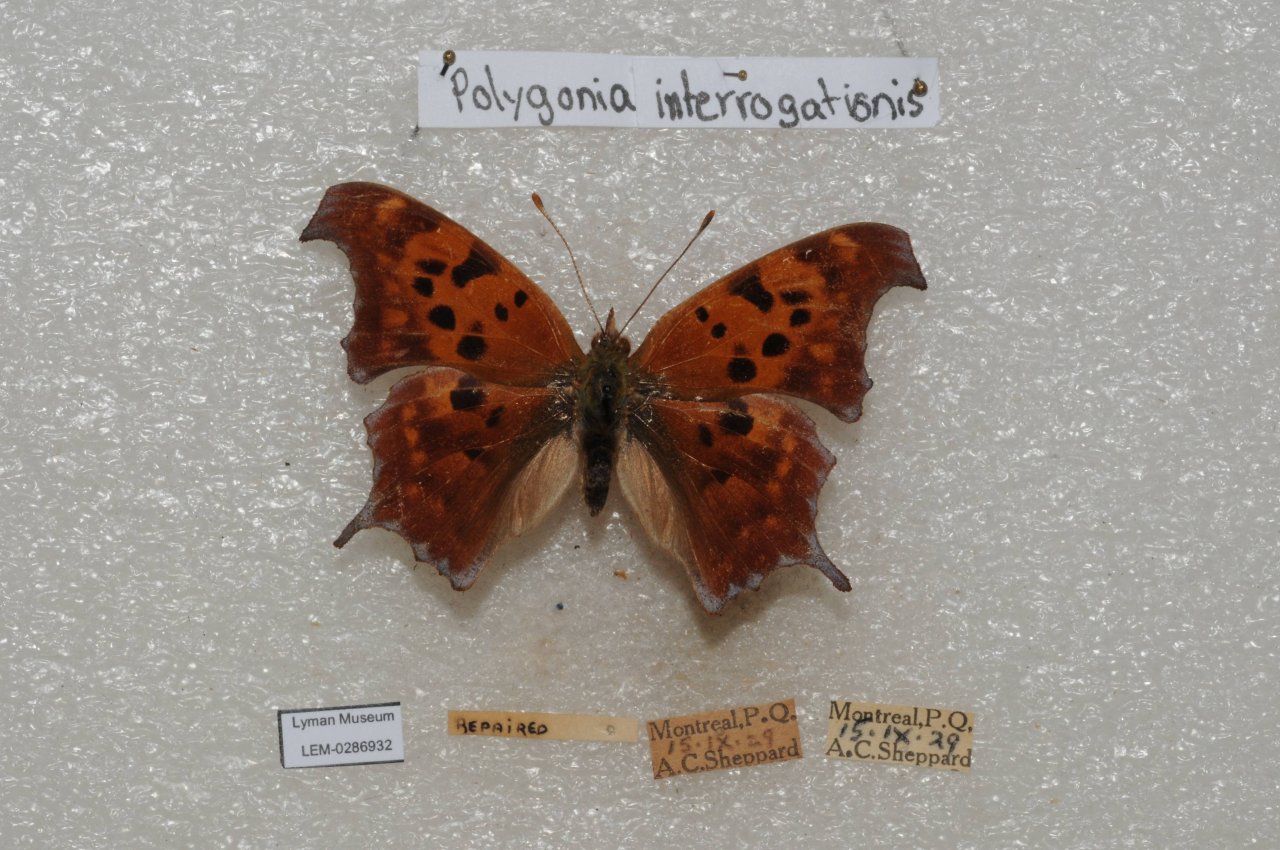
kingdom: Animalia
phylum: Arthropoda
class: Insecta
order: Lepidoptera
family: Nymphalidae
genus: Polygonia
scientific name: Polygonia interrogationis
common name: Question Mark
